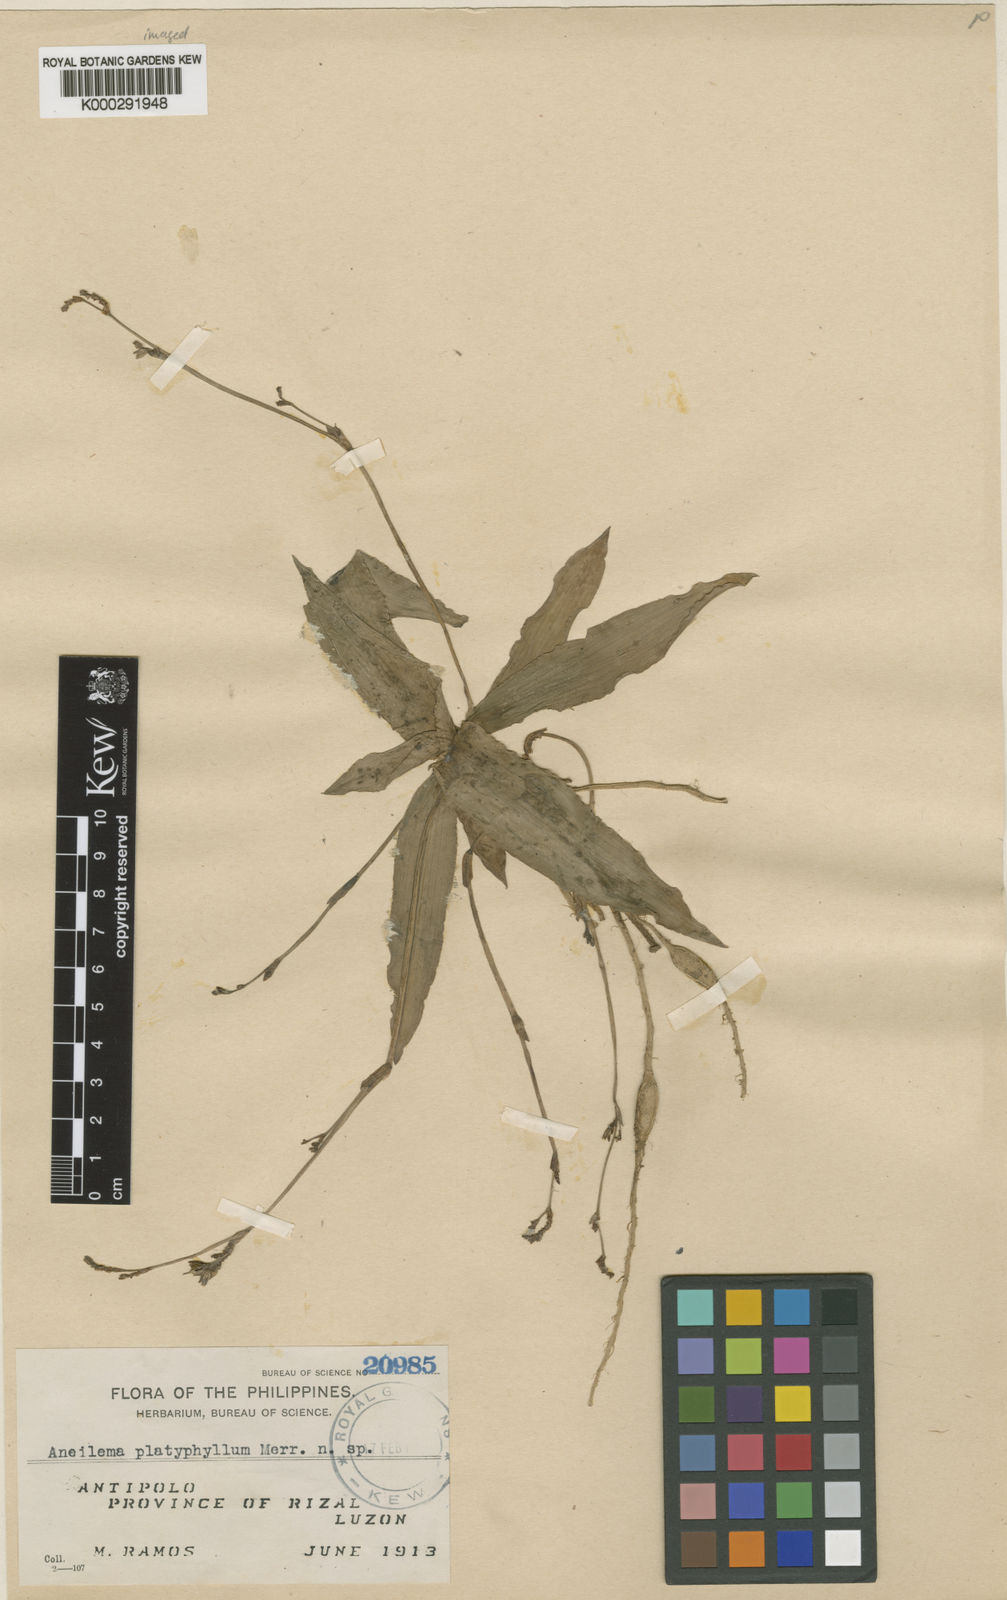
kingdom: Plantae
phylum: Tracheophyta
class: Liliopsida
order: Commelinales
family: Commelinaceae
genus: Murdannia
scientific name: Murdannia
